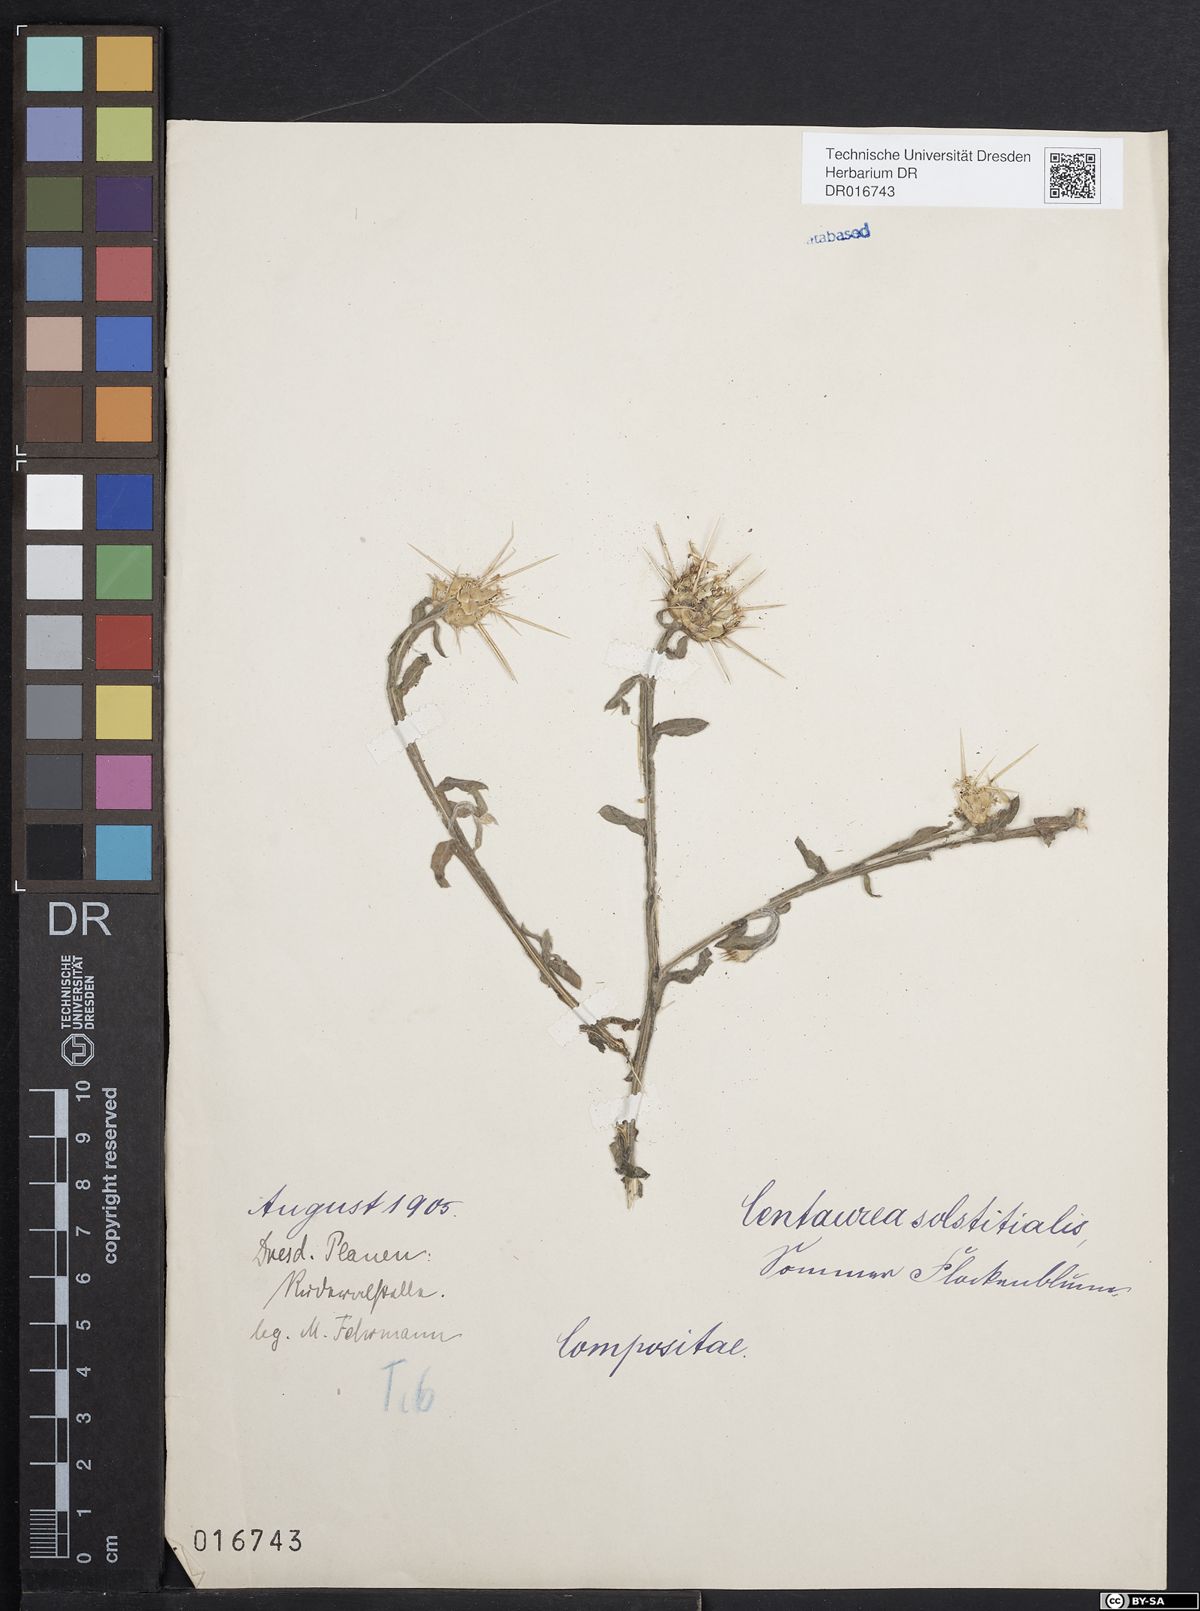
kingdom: Plantae
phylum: Tracheophyta
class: Magnoliopsida
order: Asterales
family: Asteraceae
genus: Centaurea
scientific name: Centaurea solstitialis
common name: Yellow star-thistle
